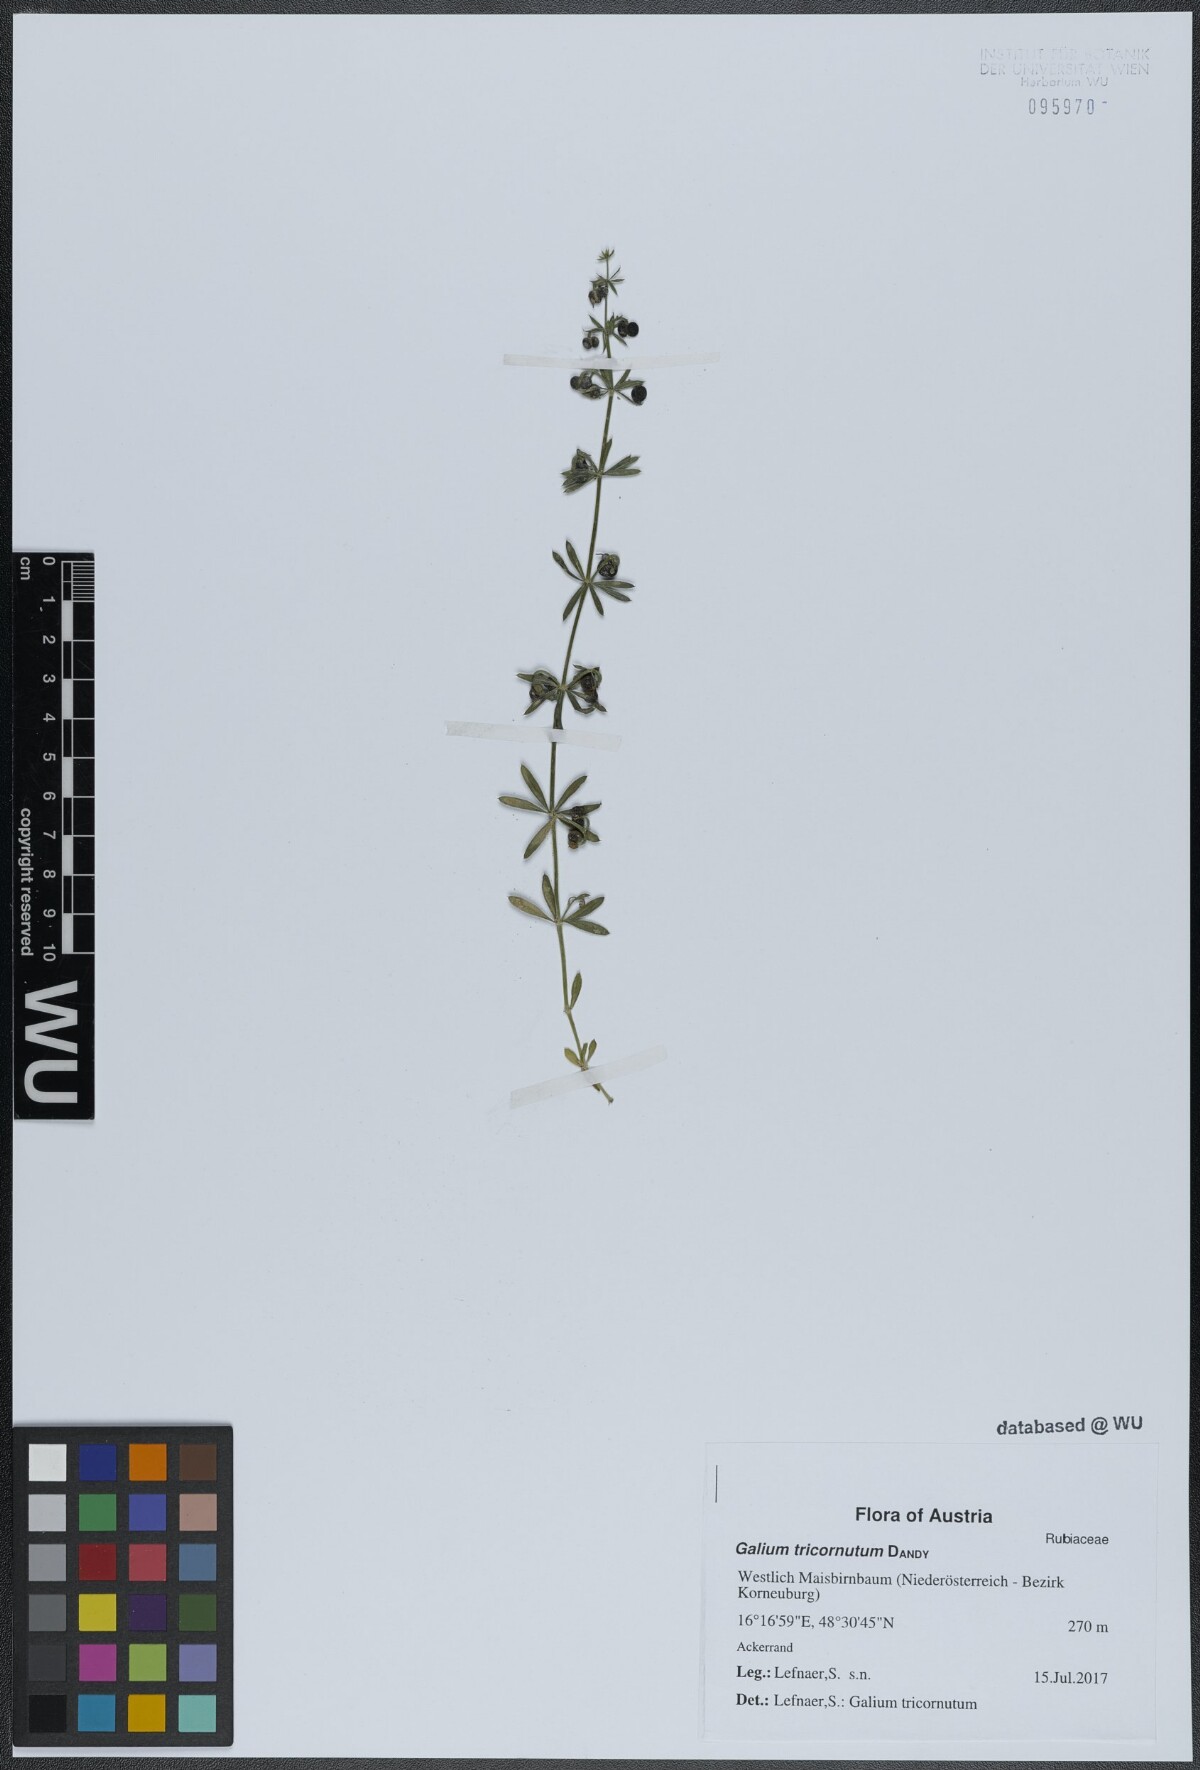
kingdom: Plantae
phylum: Tracheophyta
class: Magnoliopsida
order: Gentianales
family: Rubiaceae
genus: Galium
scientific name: Galium tricornutum
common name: Corn cleavers
